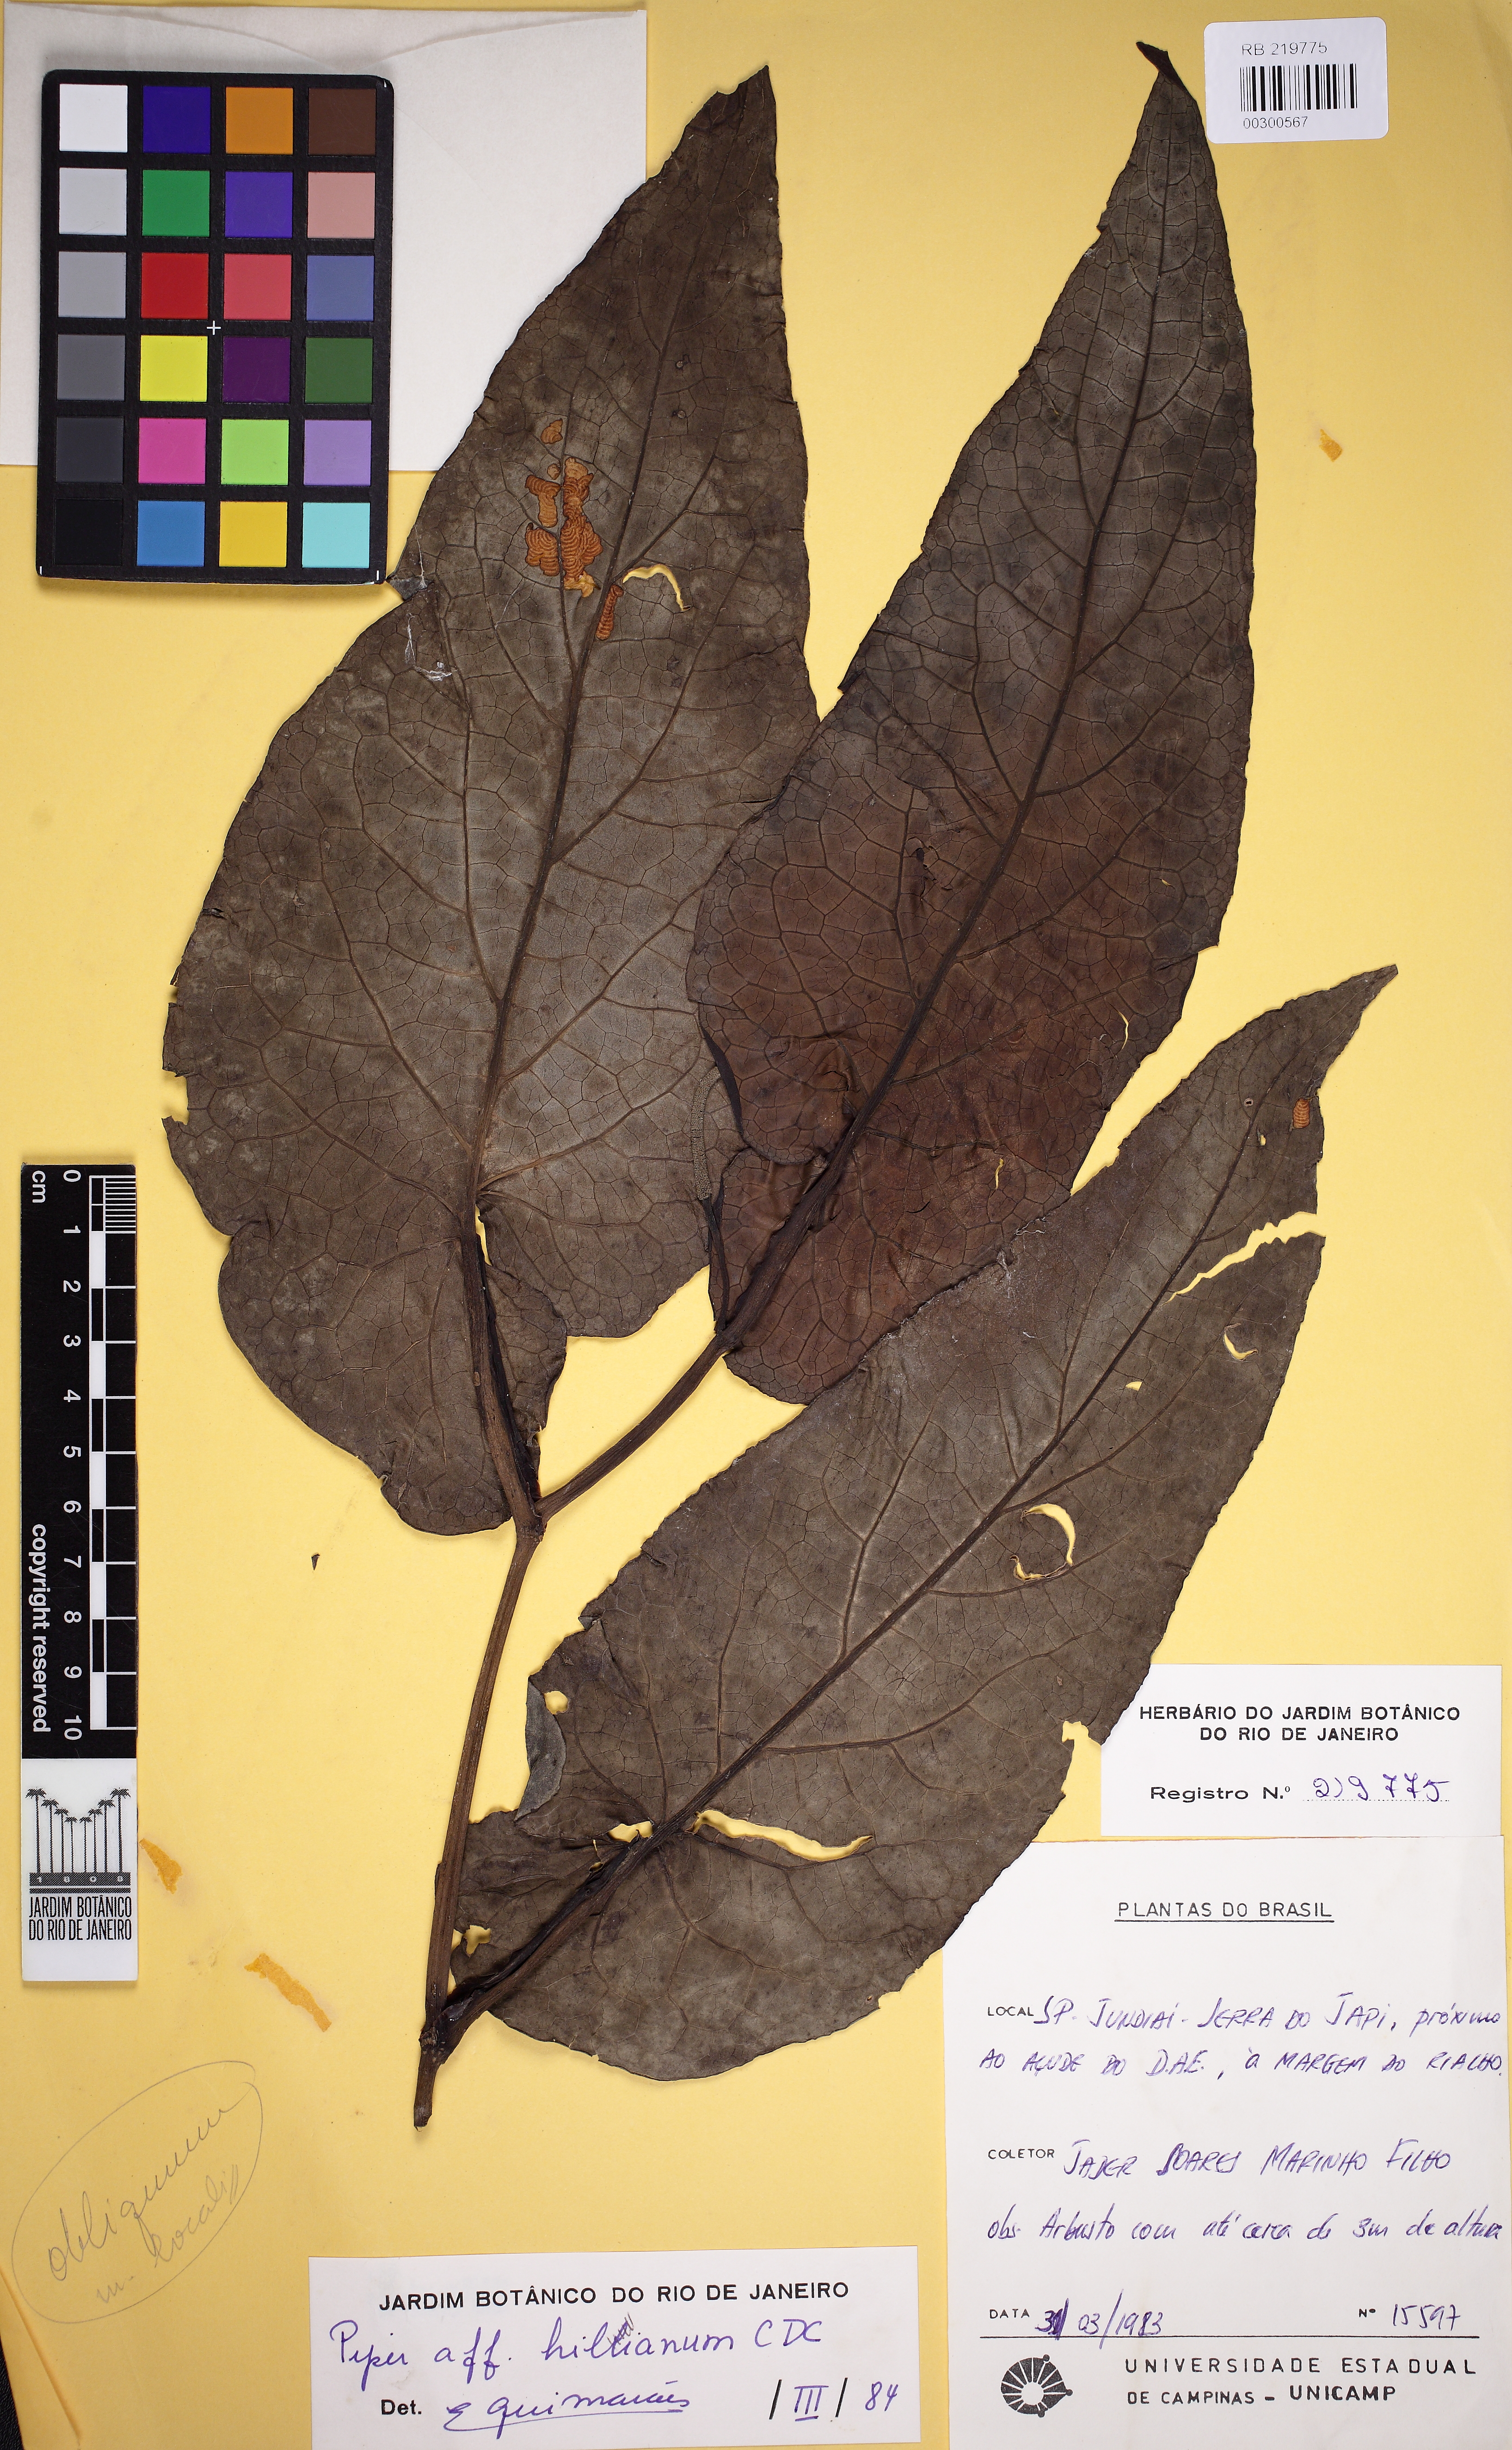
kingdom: Plantae
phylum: Tracheophyta
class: Magnoliopsida
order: Piperales
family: Piperaceae
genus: Piper
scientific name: Piper hillianum
